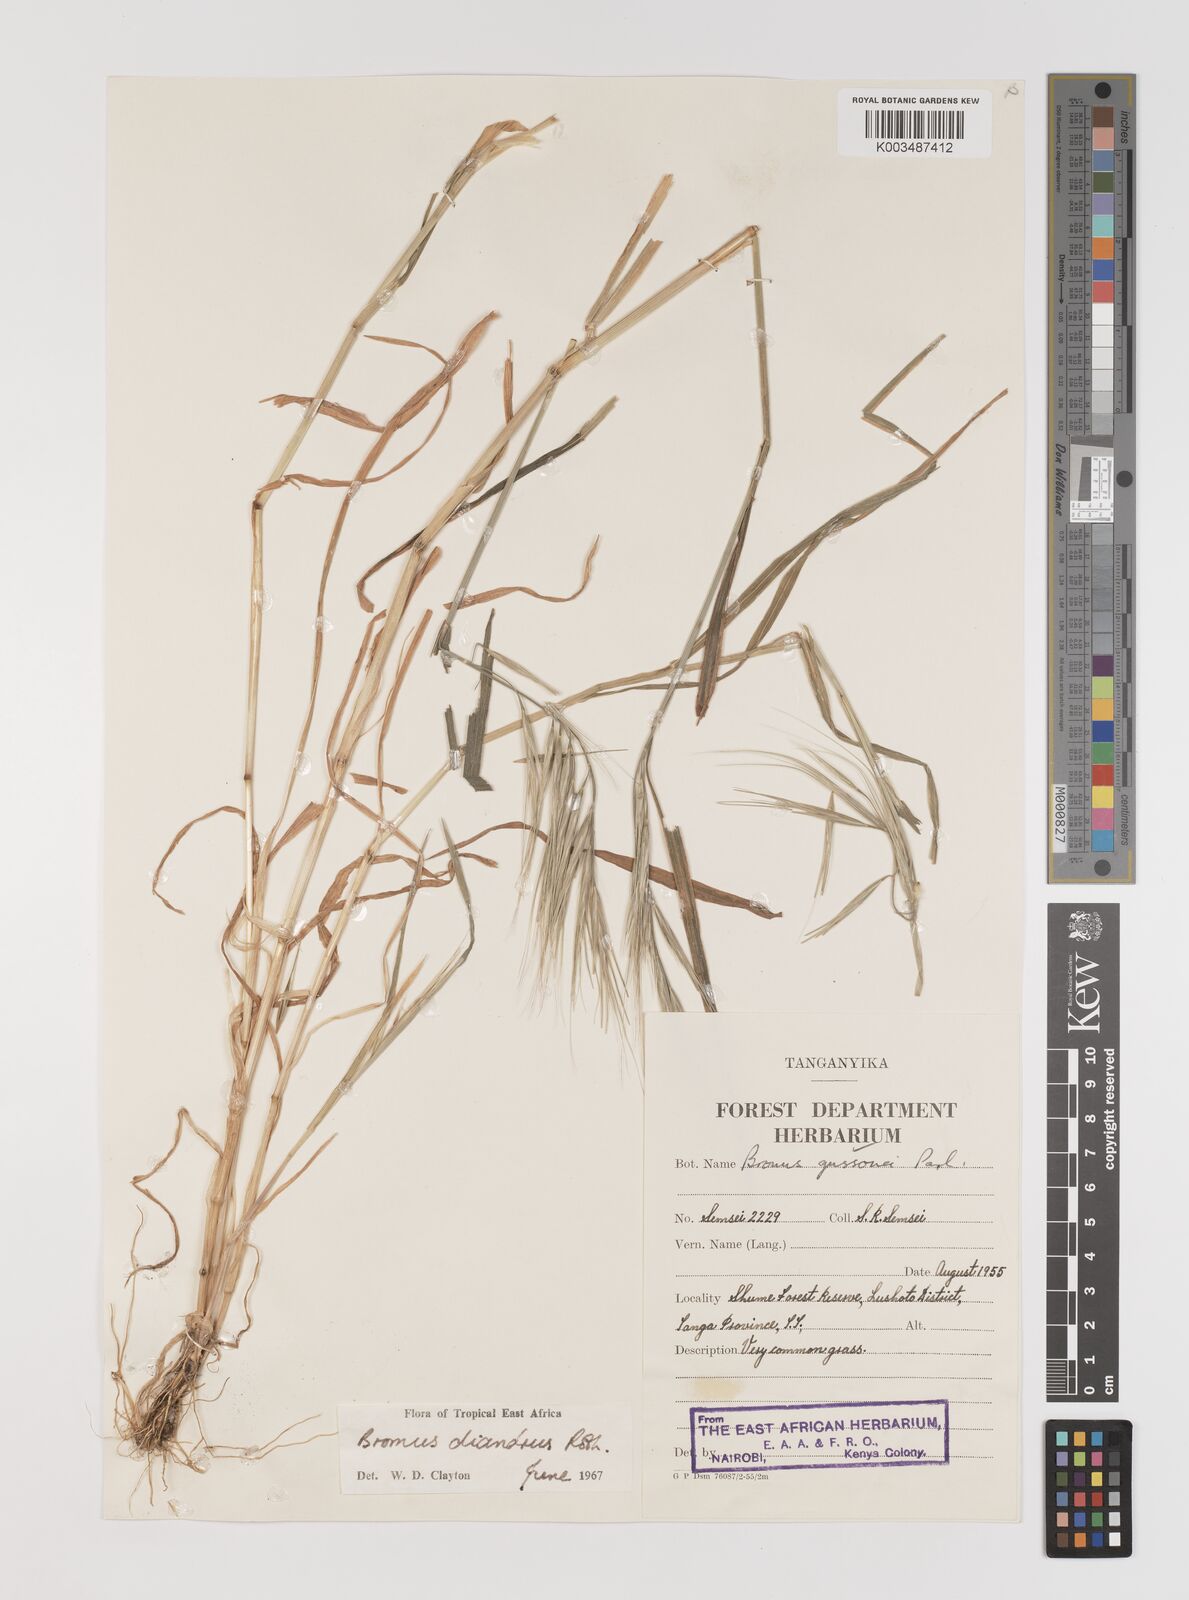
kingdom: Plantae
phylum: Tracheophyta
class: Liliopsida
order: Poales
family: Poaceae
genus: Bromus
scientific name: Bromus diandrus
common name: Ripgut brome
